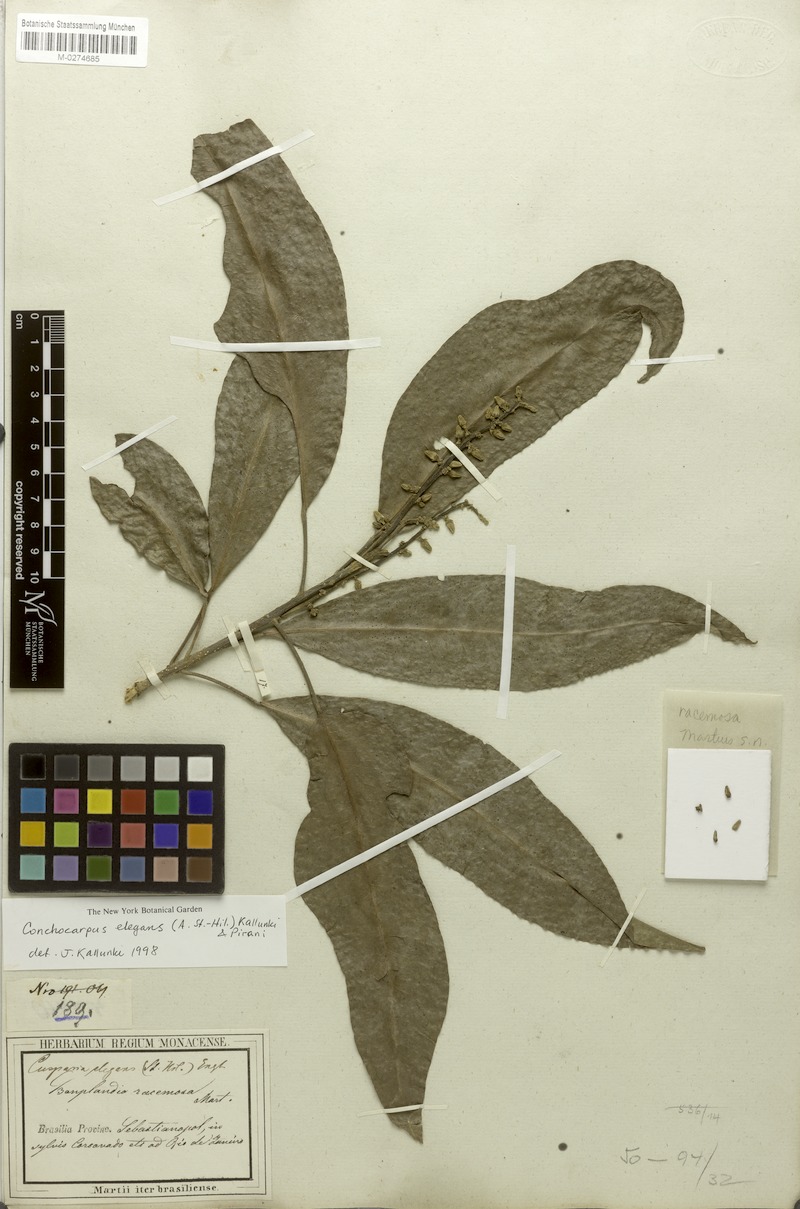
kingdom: Plantae
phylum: Tracheophyta
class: Magnoliopsida
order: Sapindales
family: Rutaceae
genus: Conchocarpus
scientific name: Conchocarpus elegans
